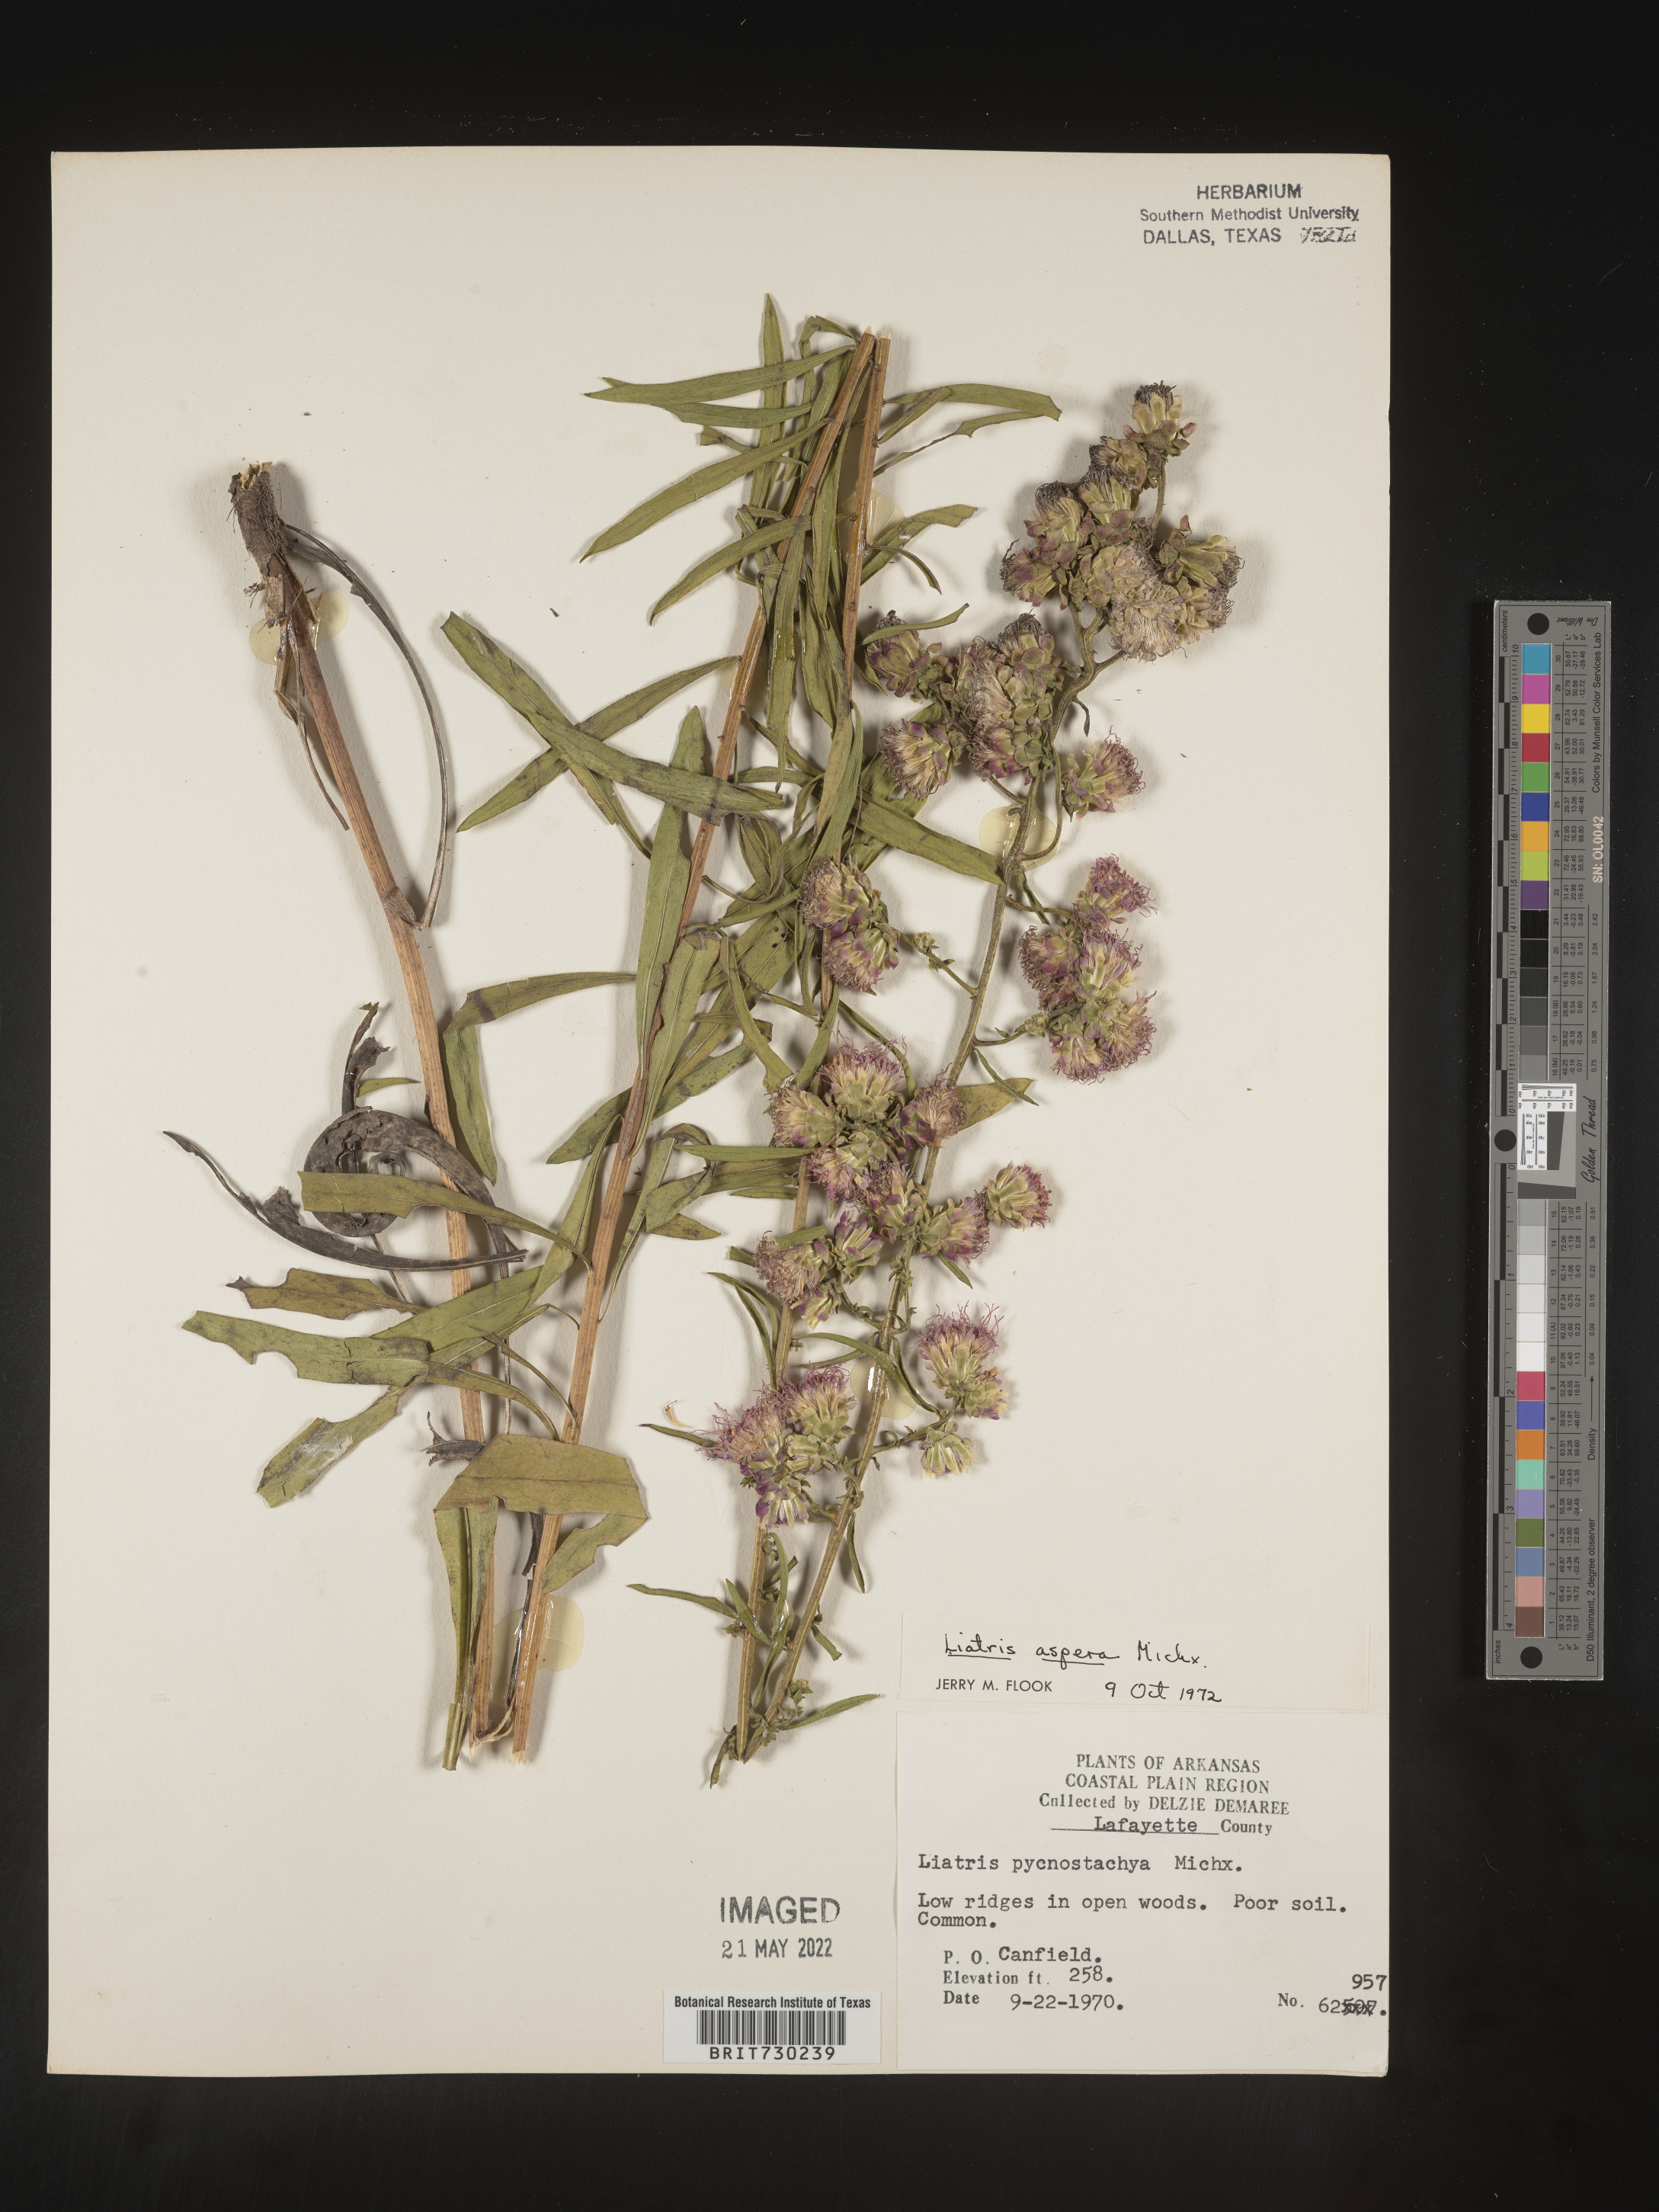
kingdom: Plantae
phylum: Tracheophyta
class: Magnoliopsida
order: Asterales
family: Asteraceae
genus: Liatris
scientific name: Liatris aspera
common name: Lacerate blazing-star
